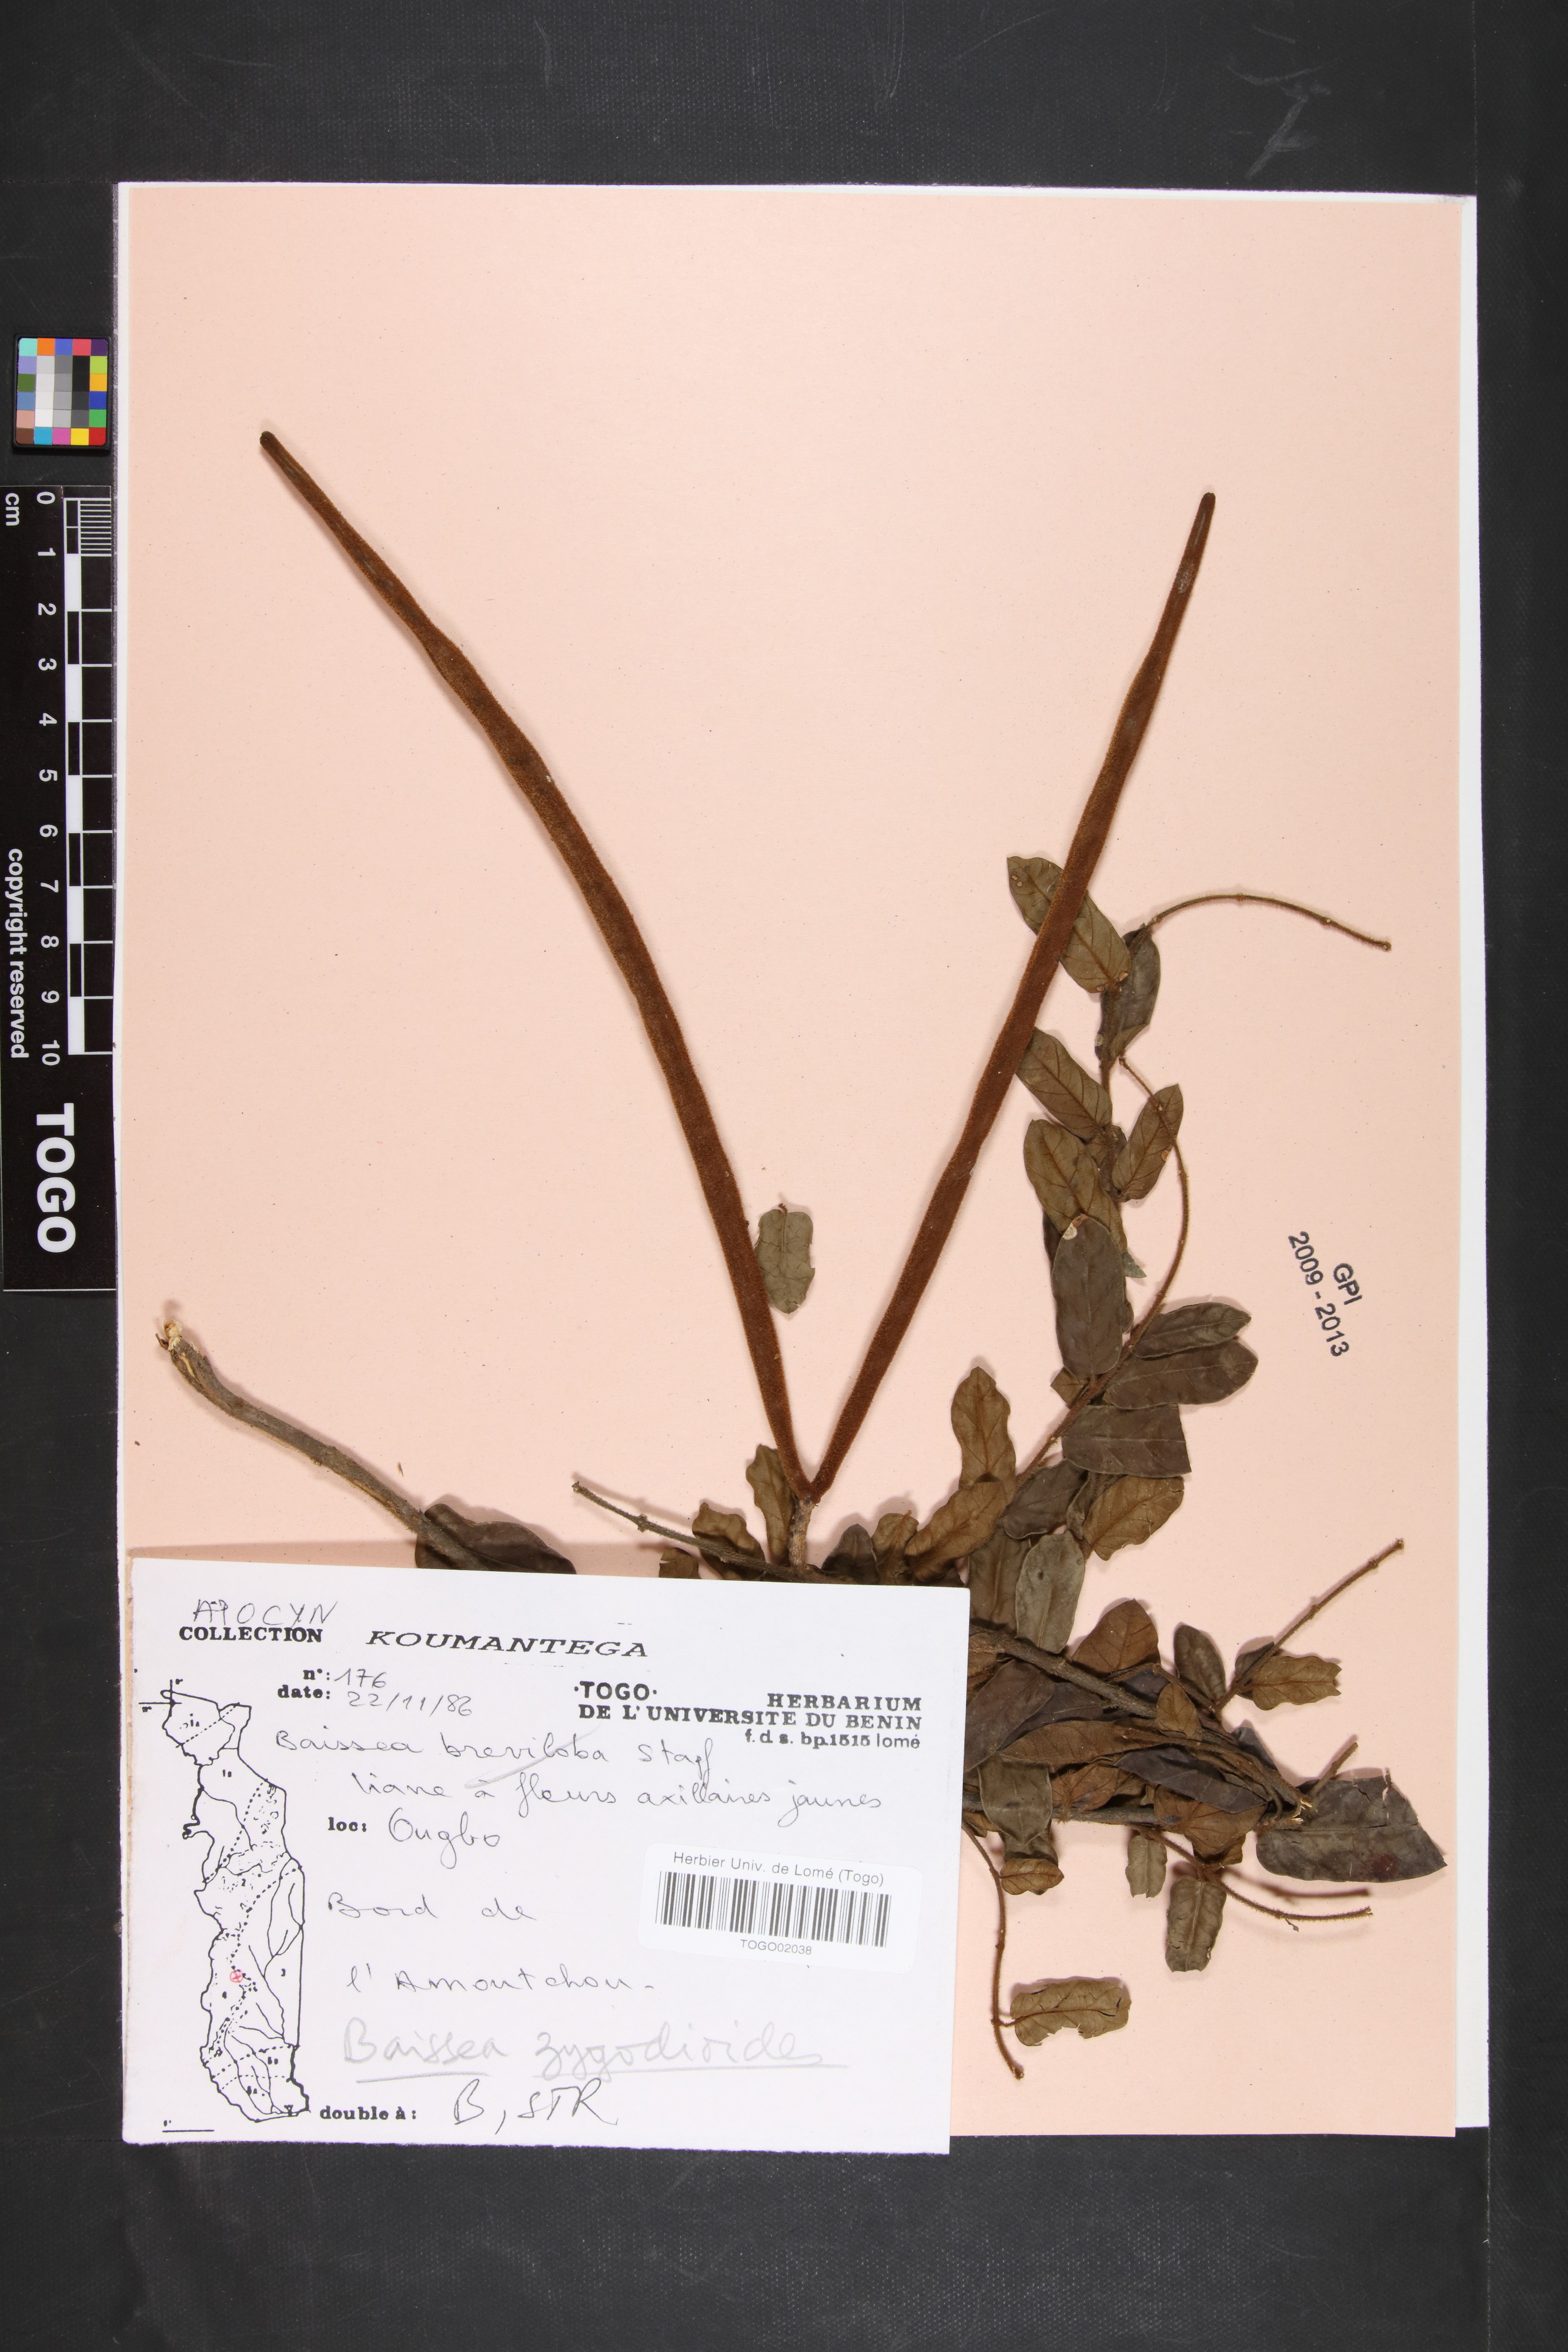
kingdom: Plantae
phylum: Tracheophyta
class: Magnoliopsida
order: Gentianales
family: Apocynaceae
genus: Baissea
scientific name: Baissea zygodioides
